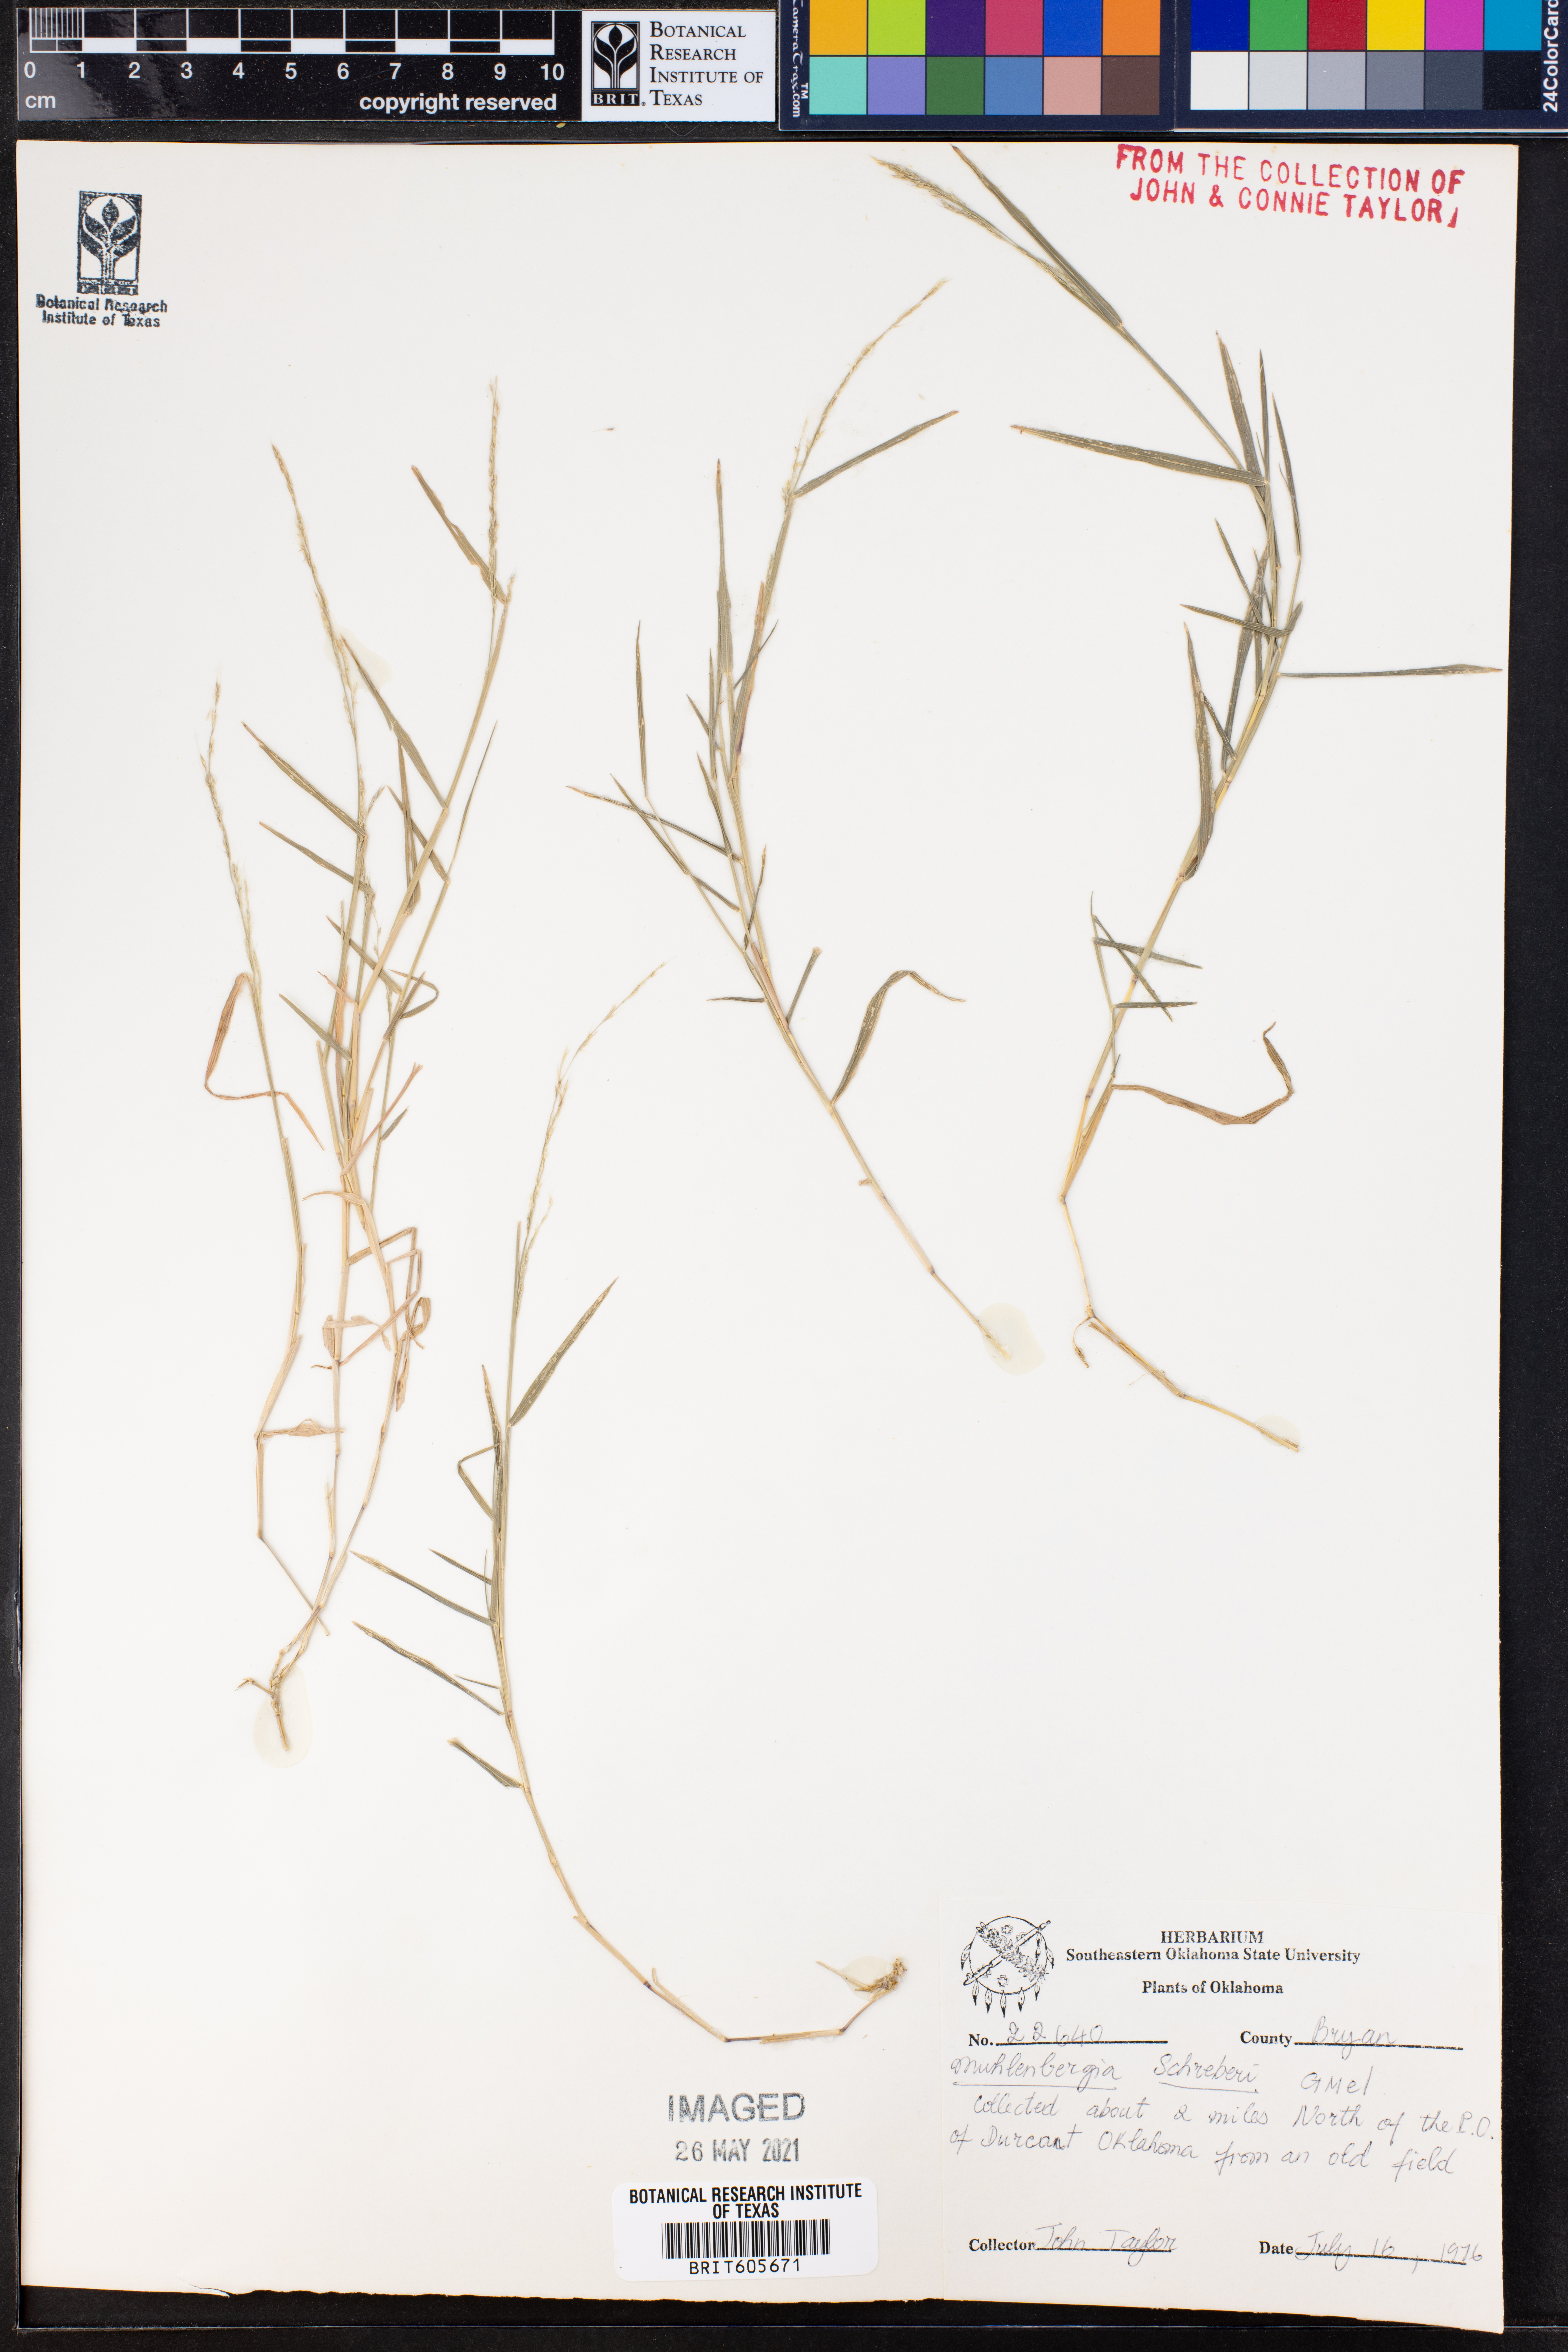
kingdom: Plantae
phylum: Tracheophyta
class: Liliopsida
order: Poales
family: Poaceae
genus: Muhlenbergia
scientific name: Muhlenbergia schreberi
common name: Nimblewill
